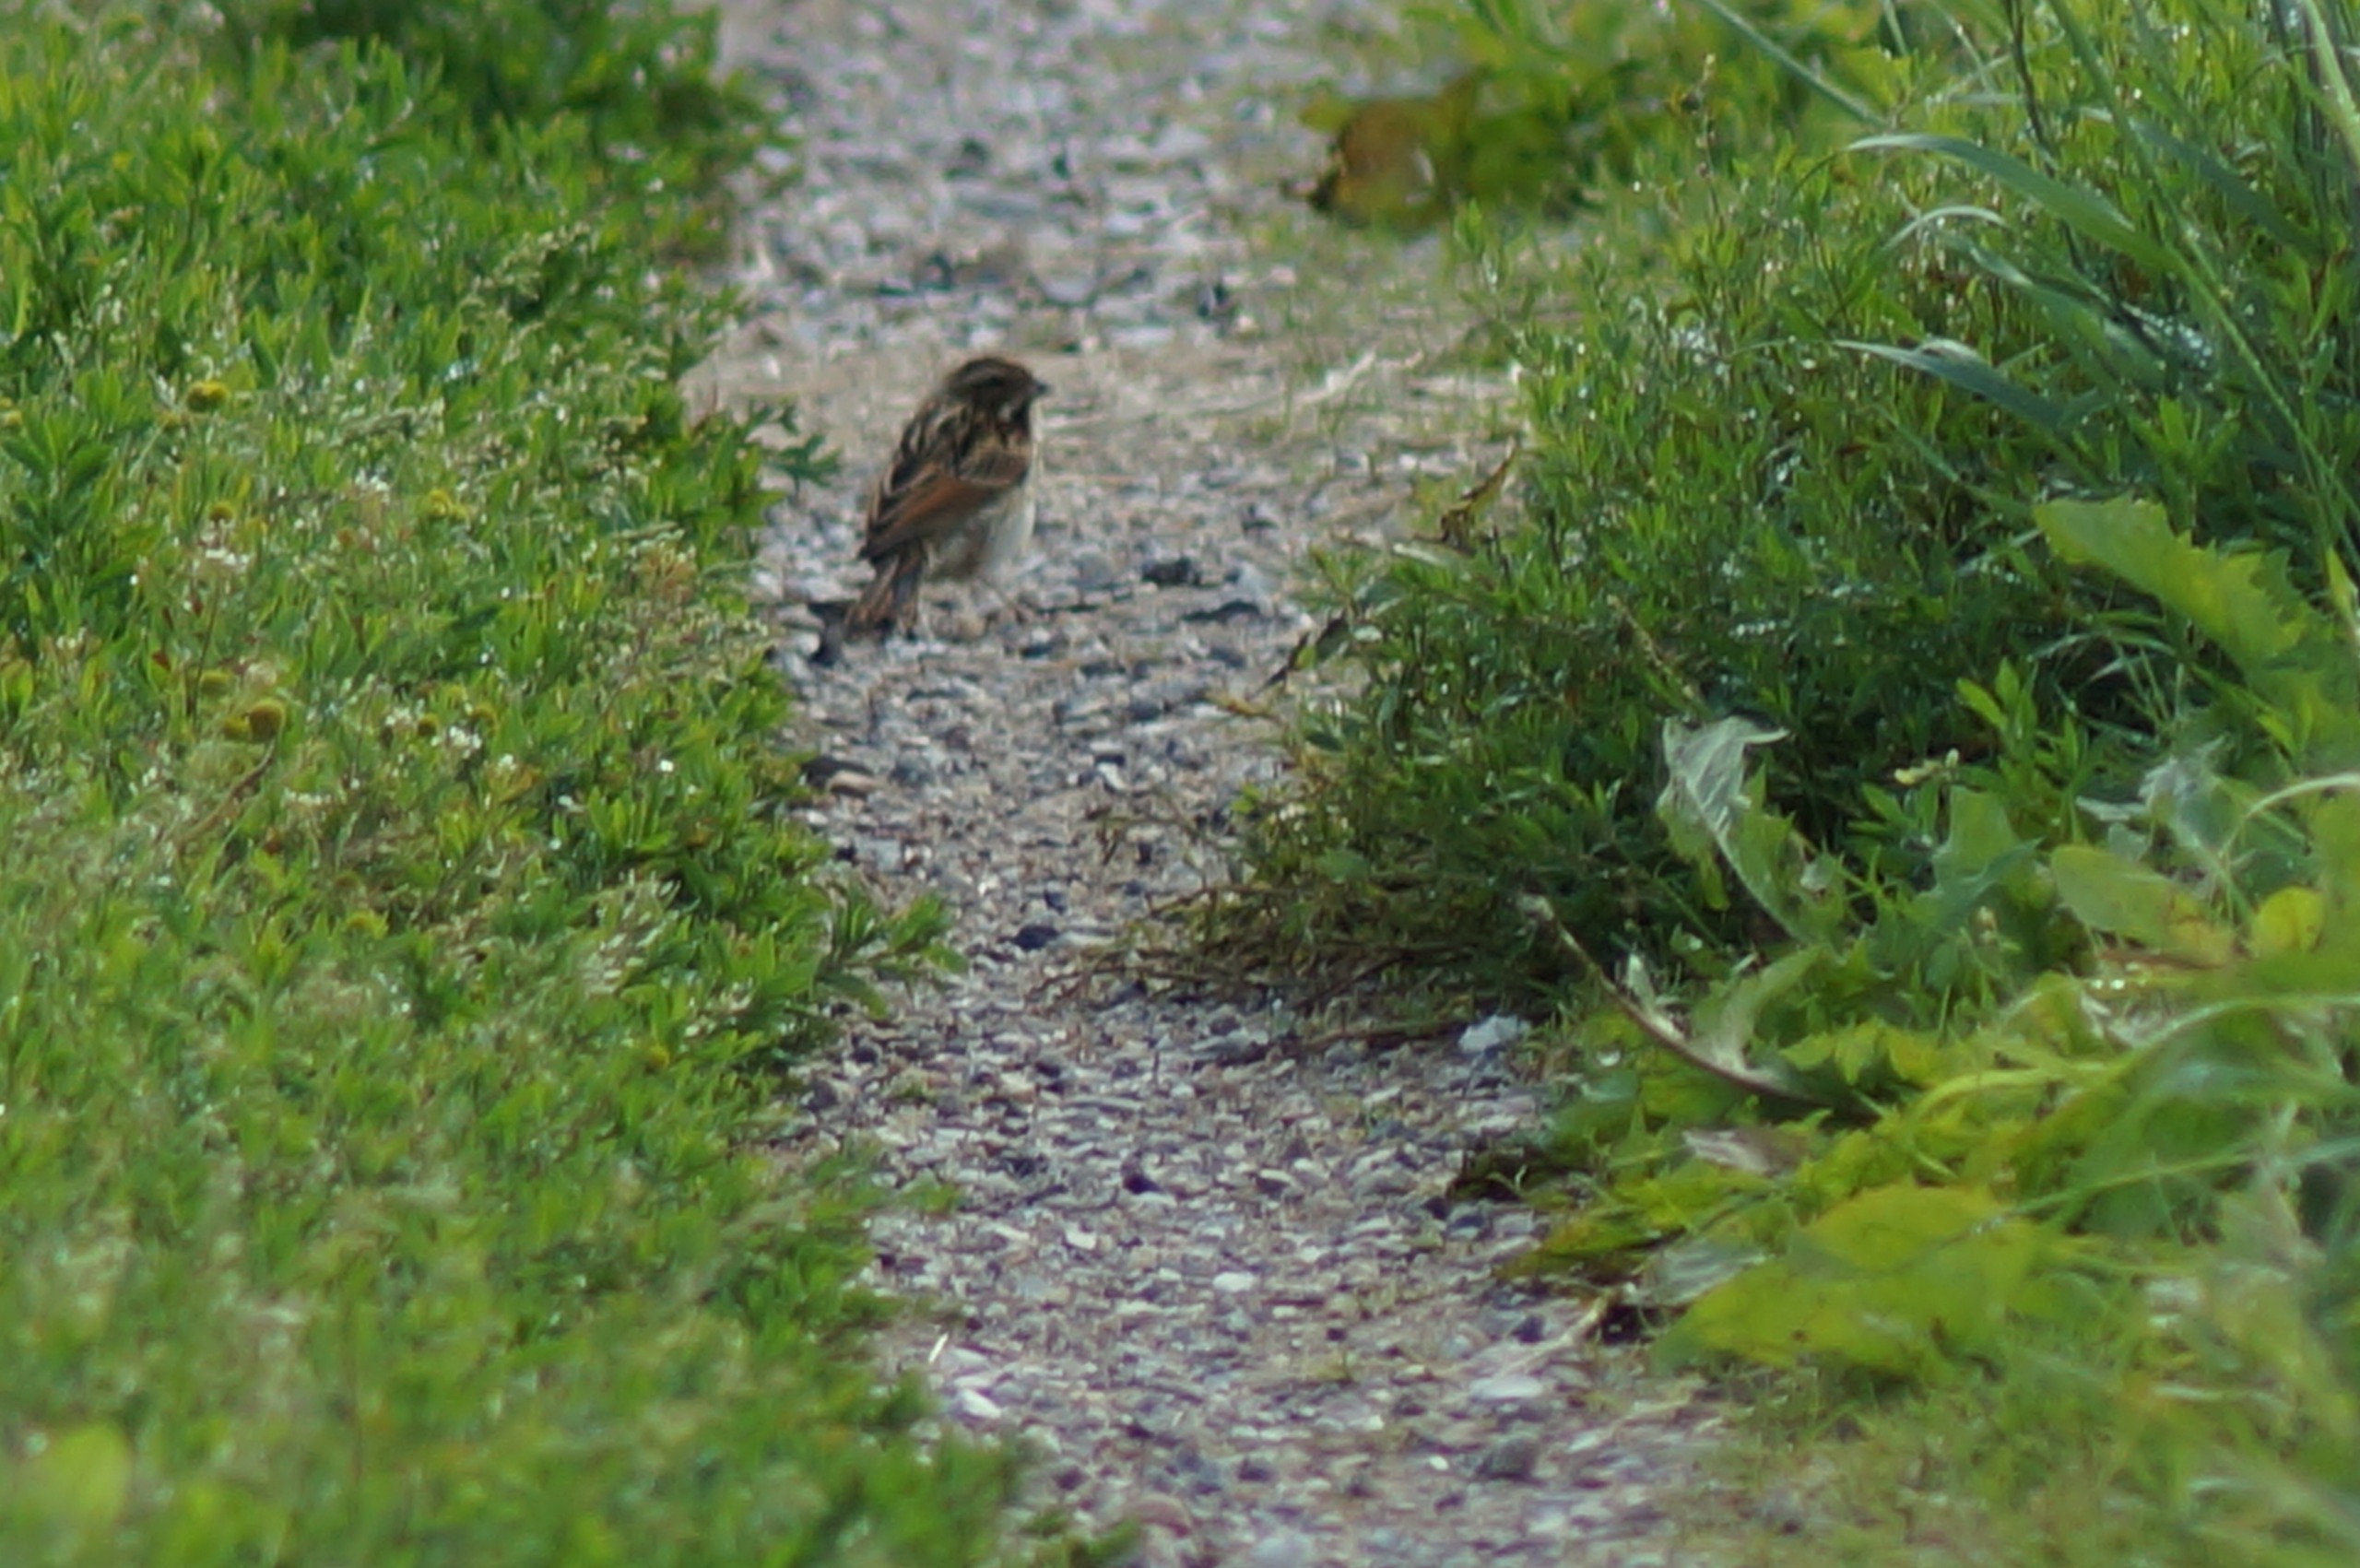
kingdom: Animalia
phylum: Chordata
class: Aves
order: Passeriformes
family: Emberizidae
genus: Emberiza
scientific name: Emberiza schoeniclus
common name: Rørspurv
